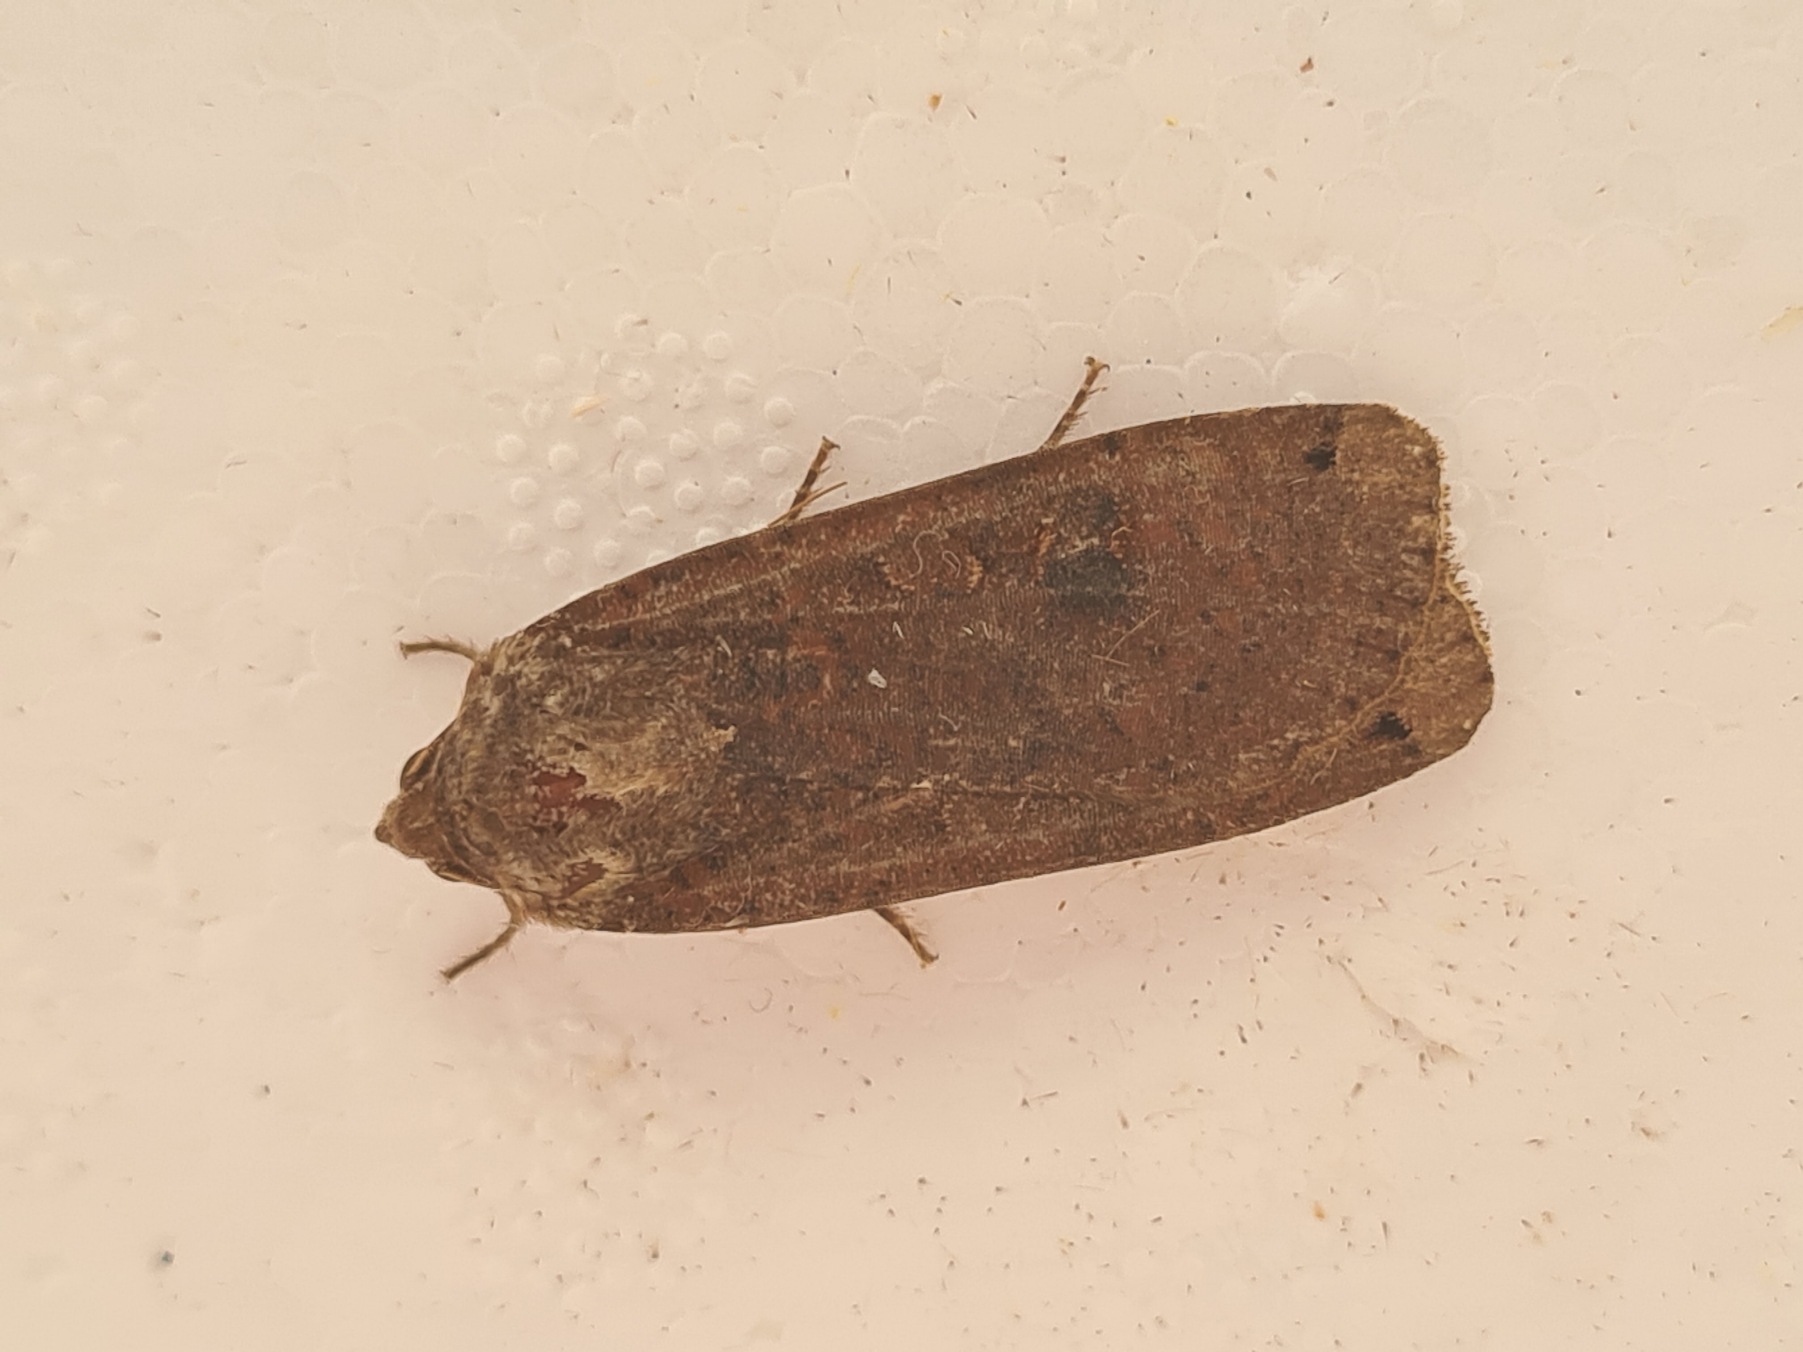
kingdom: Animalia
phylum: Arthropoda
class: Insecta
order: Lepidoptera
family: Noctuidae
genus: Noctua
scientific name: Noctua pronuba
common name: Stor smutugle
